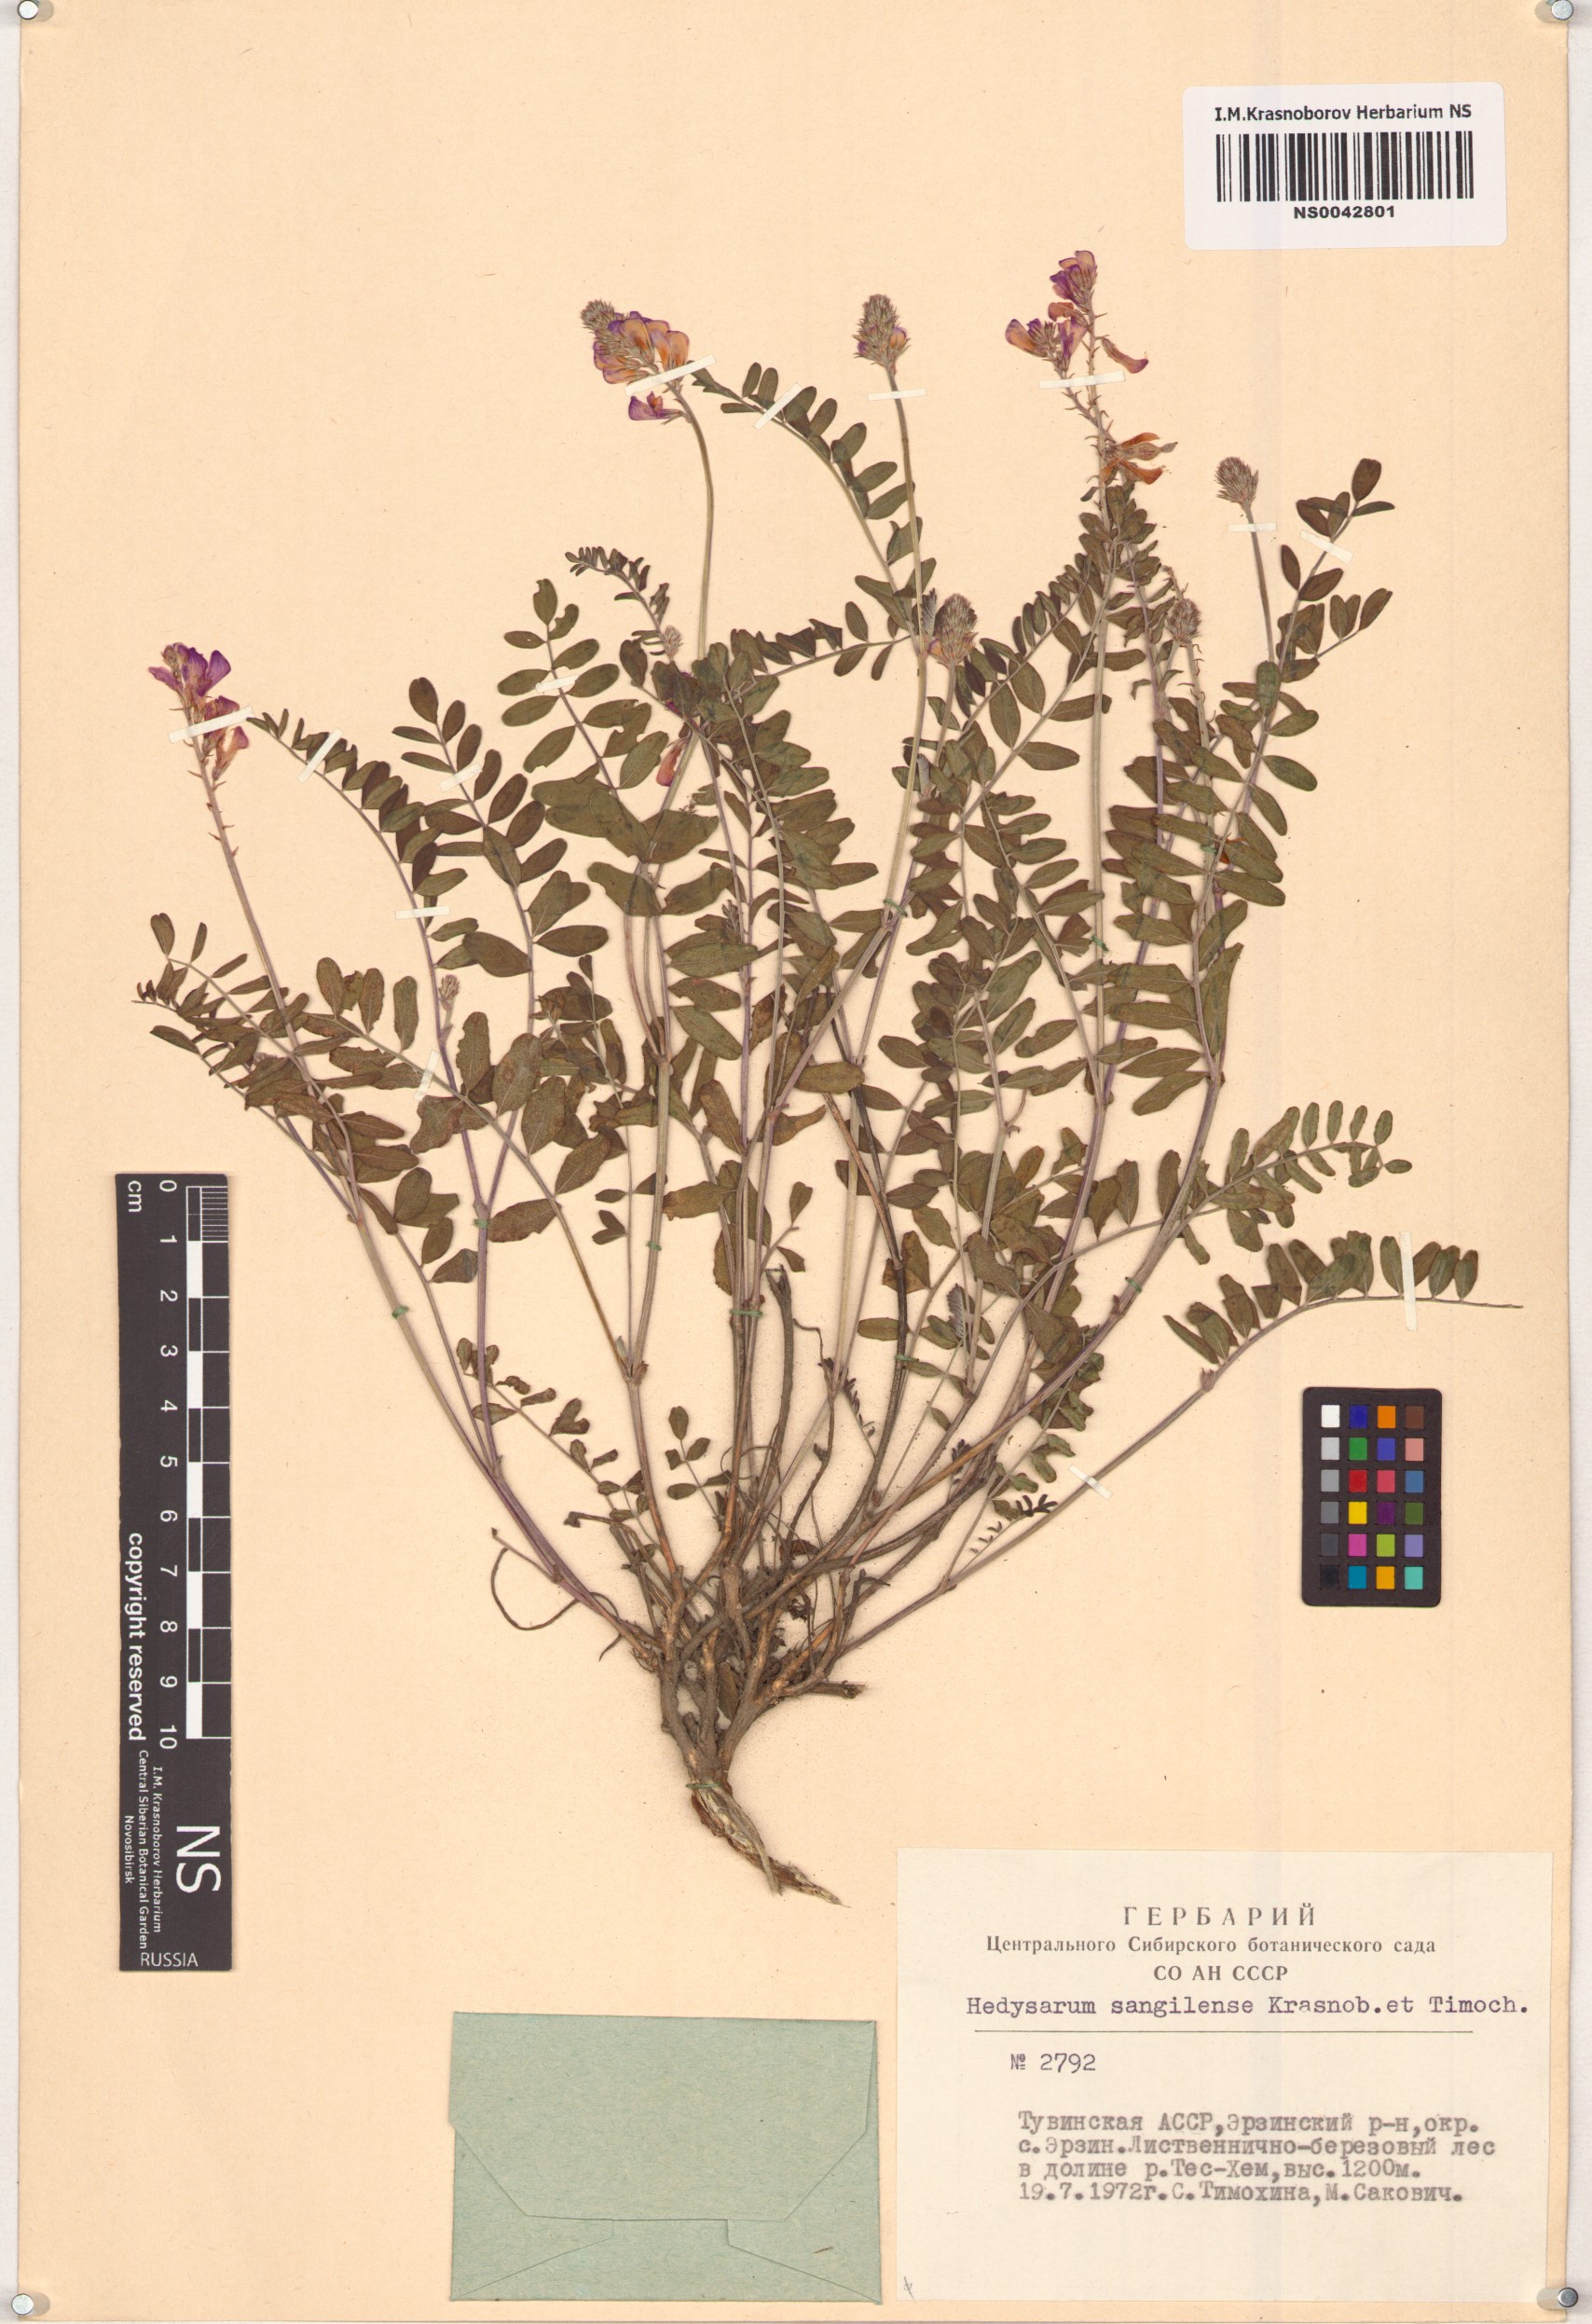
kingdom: Plantae
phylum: Tracheophyta
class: Magnoliopsida
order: Fabales
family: Fabaceae
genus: Hedysarum
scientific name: Hedysarum sangilense
